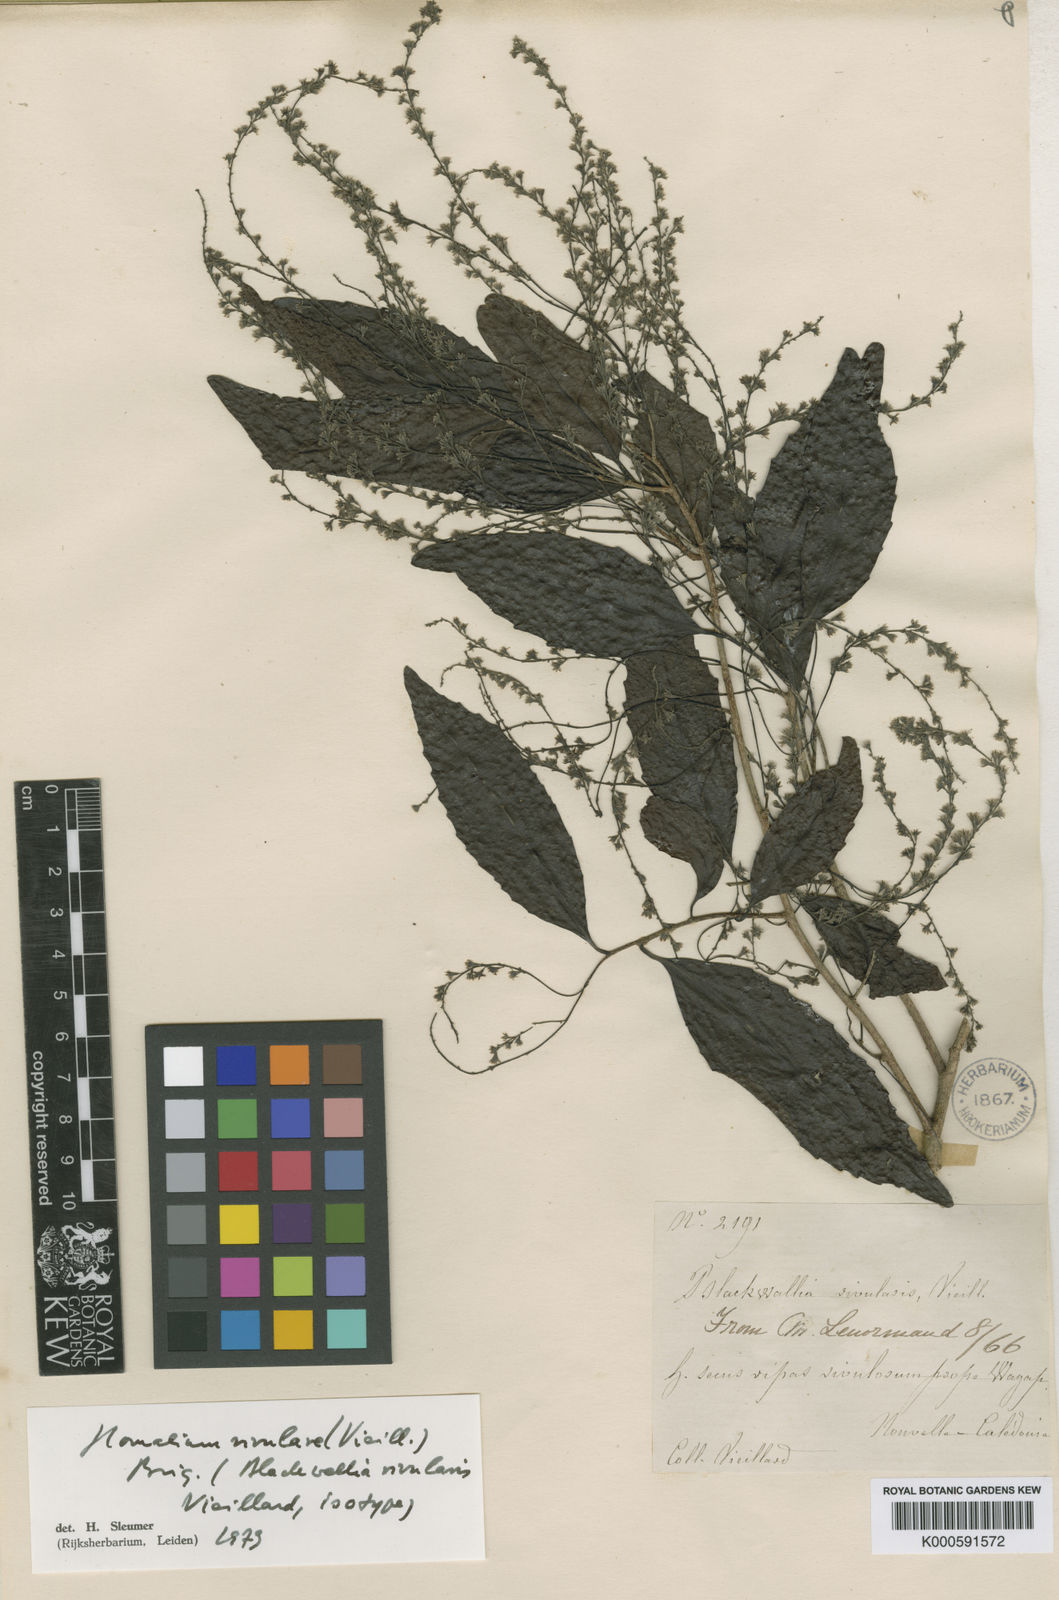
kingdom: Plantae
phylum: Tracheophyta
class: Magnoliopsida
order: Malpighiales
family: Salicaceae
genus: Homalium
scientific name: Homalium rivulare
